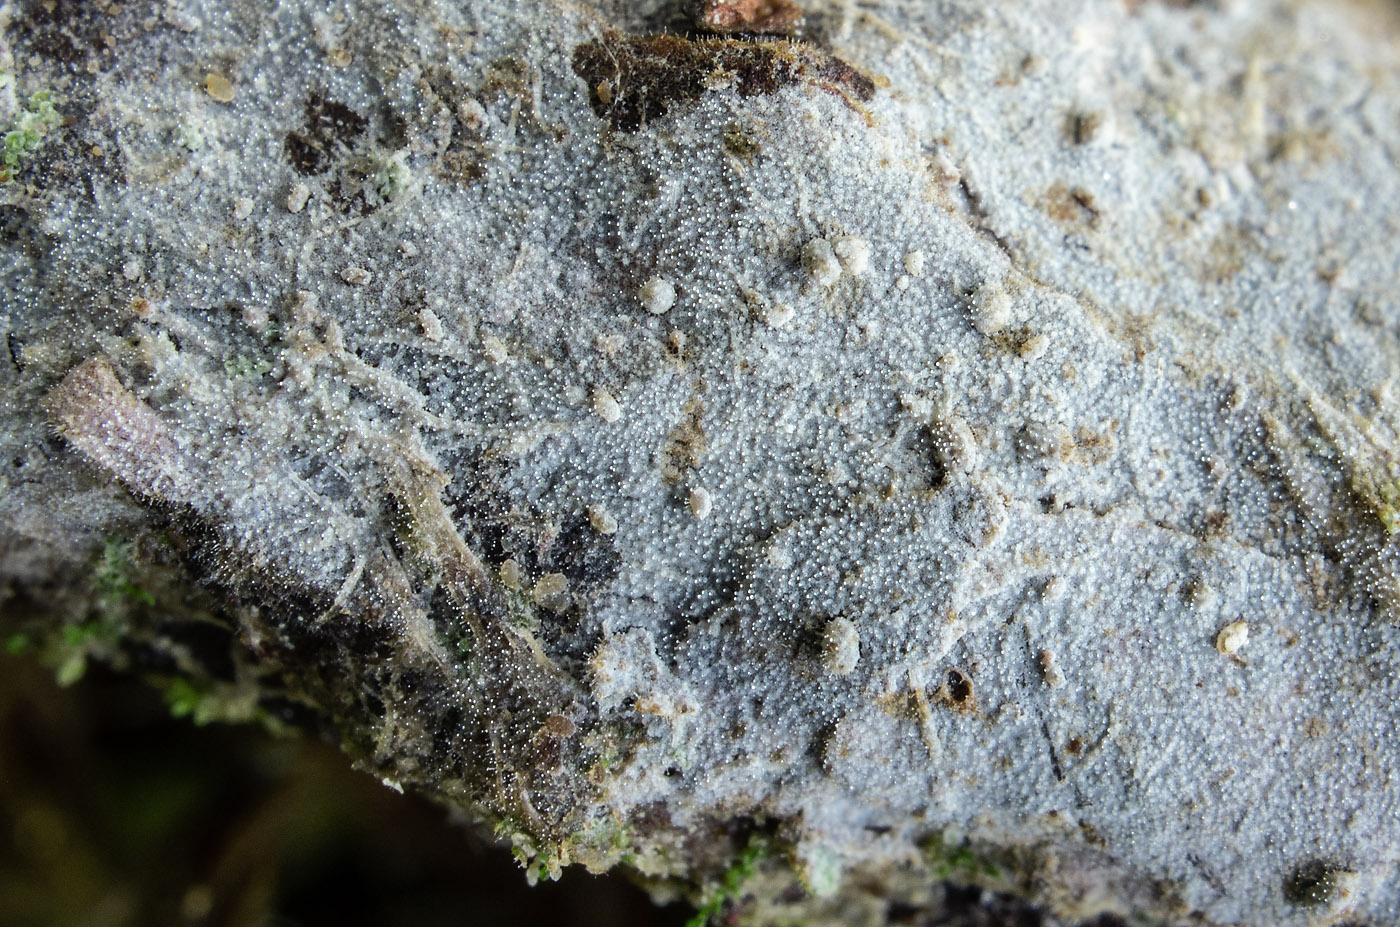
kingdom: Fungi
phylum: Basidiomycota
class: Agaricomycetes
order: Hymenochaetales
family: Hymenochaetaceae
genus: Tubulicrinis
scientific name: Tubulicrinis sororius
